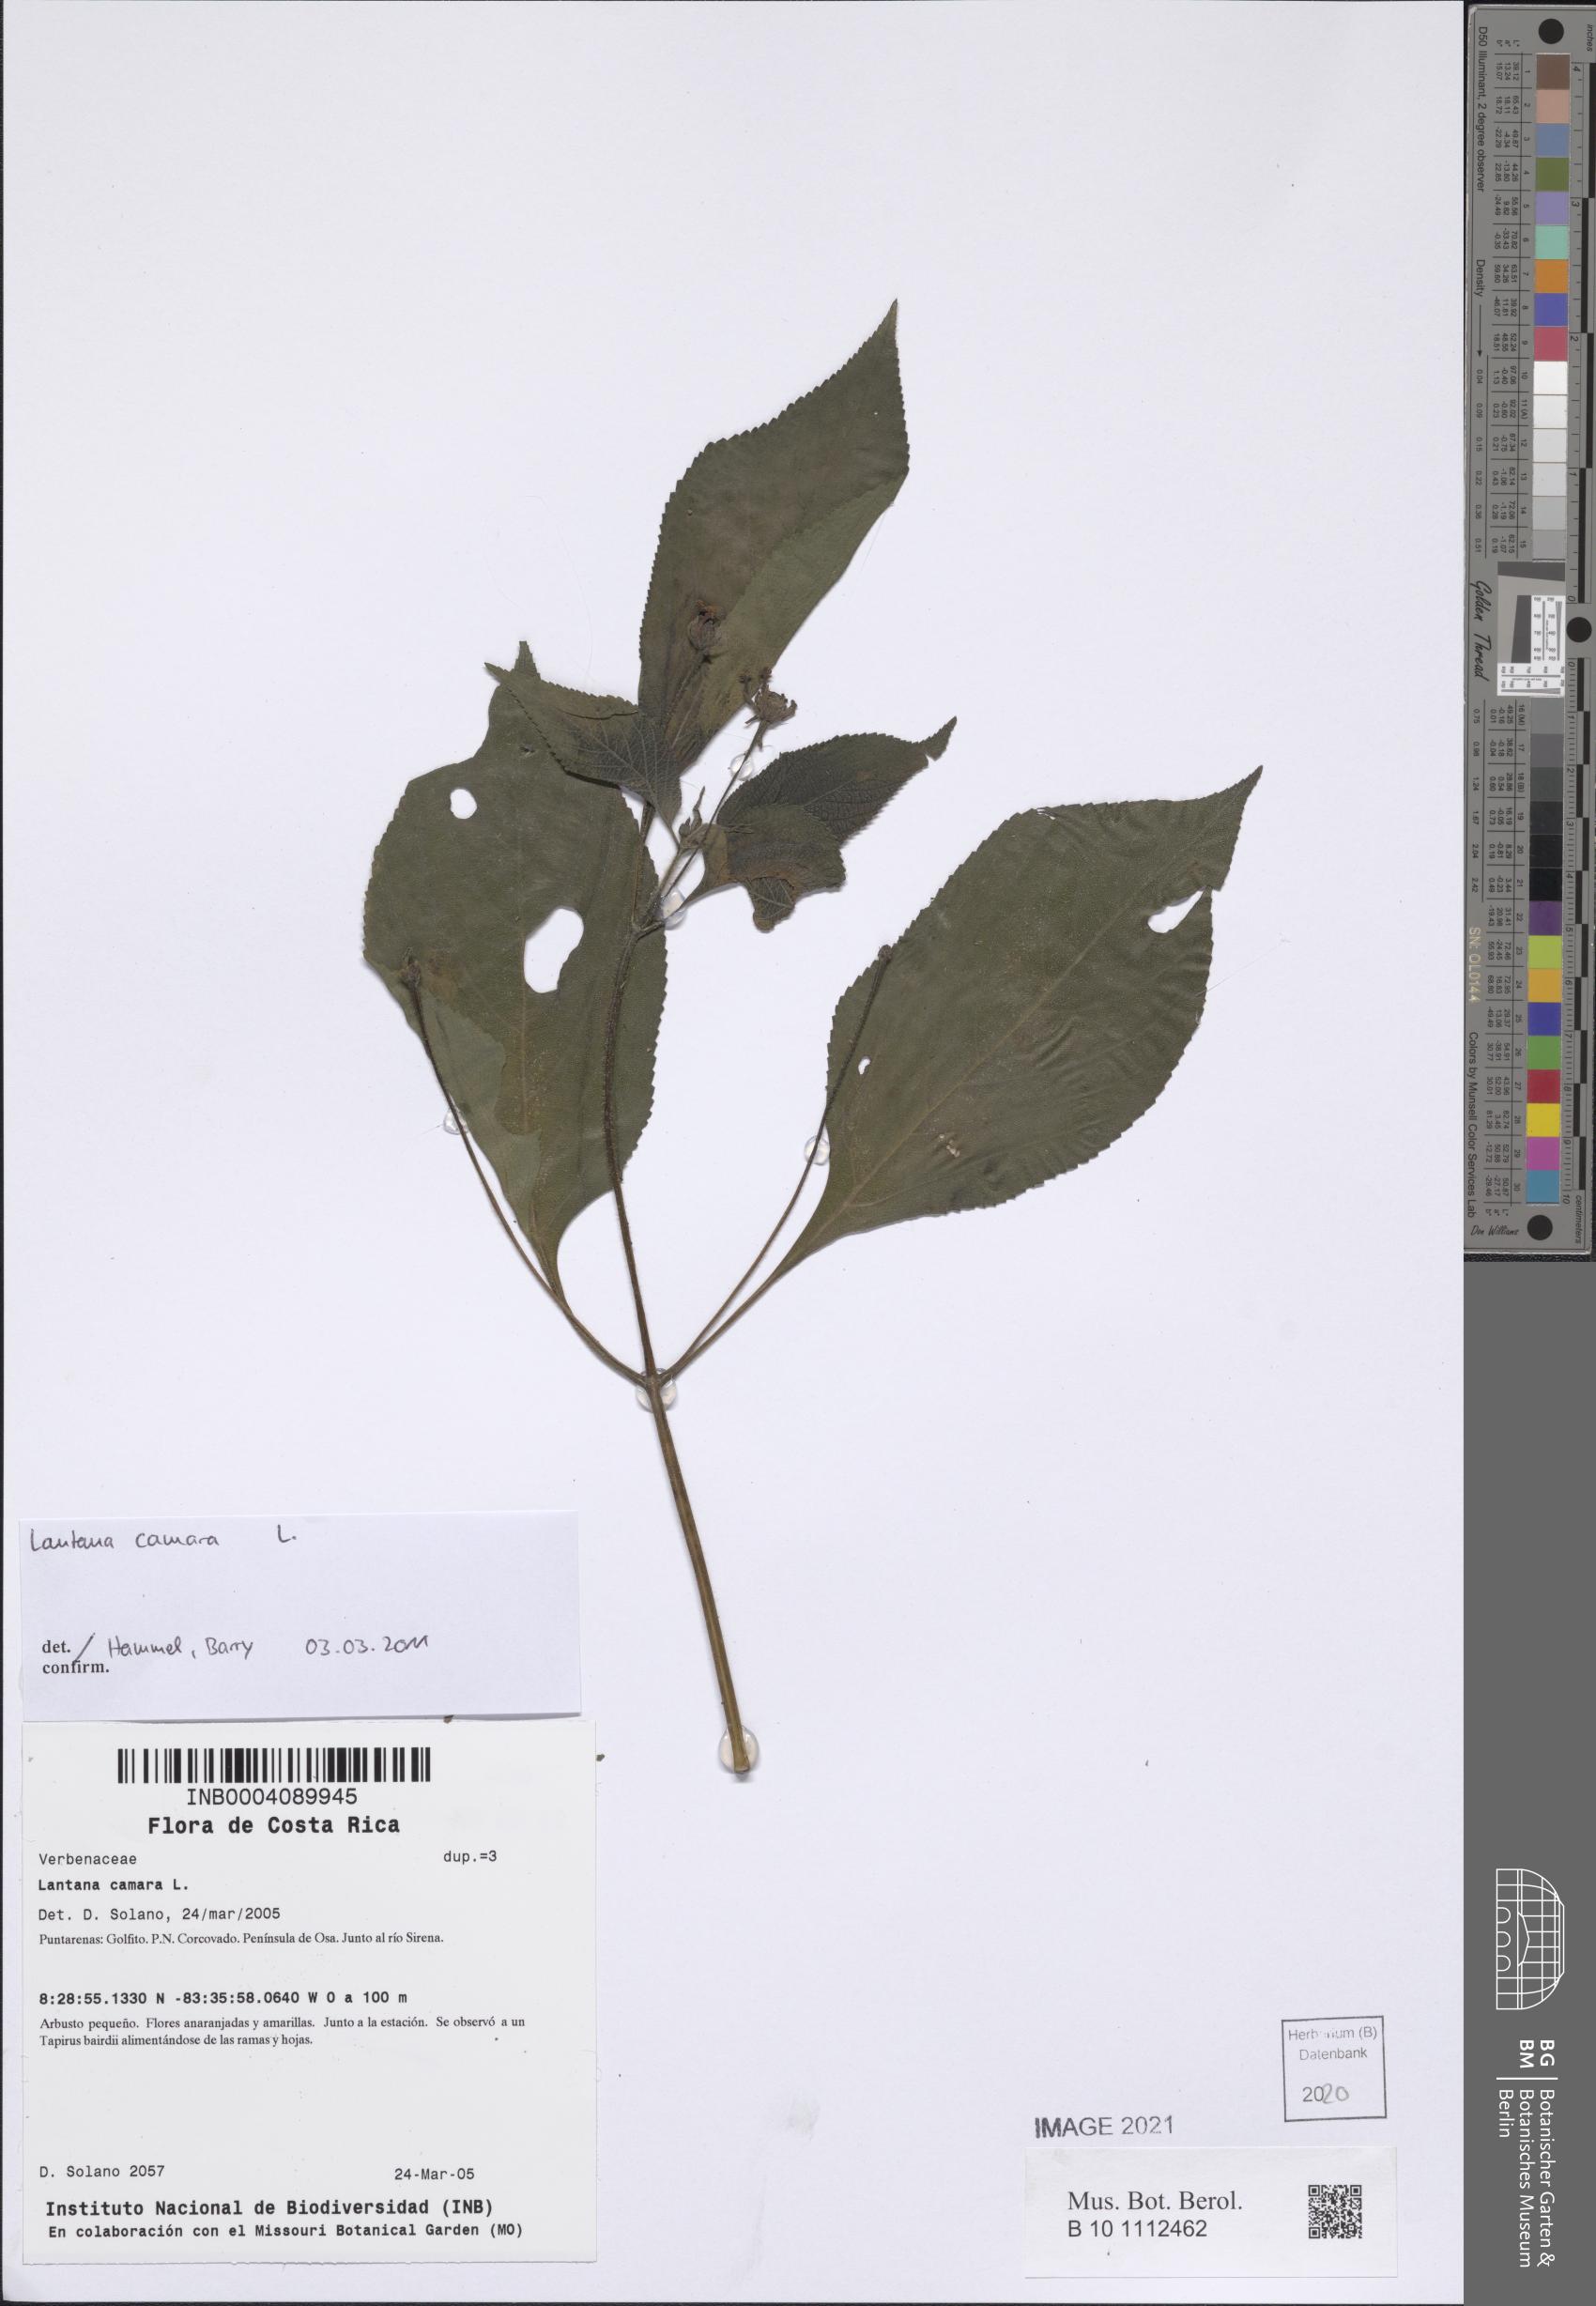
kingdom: Plantae
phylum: Tracheophyta
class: Magnoliopsida
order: Lamiales
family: Verbenaceae
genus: Lantana
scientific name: Lantana camara
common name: Lantana
